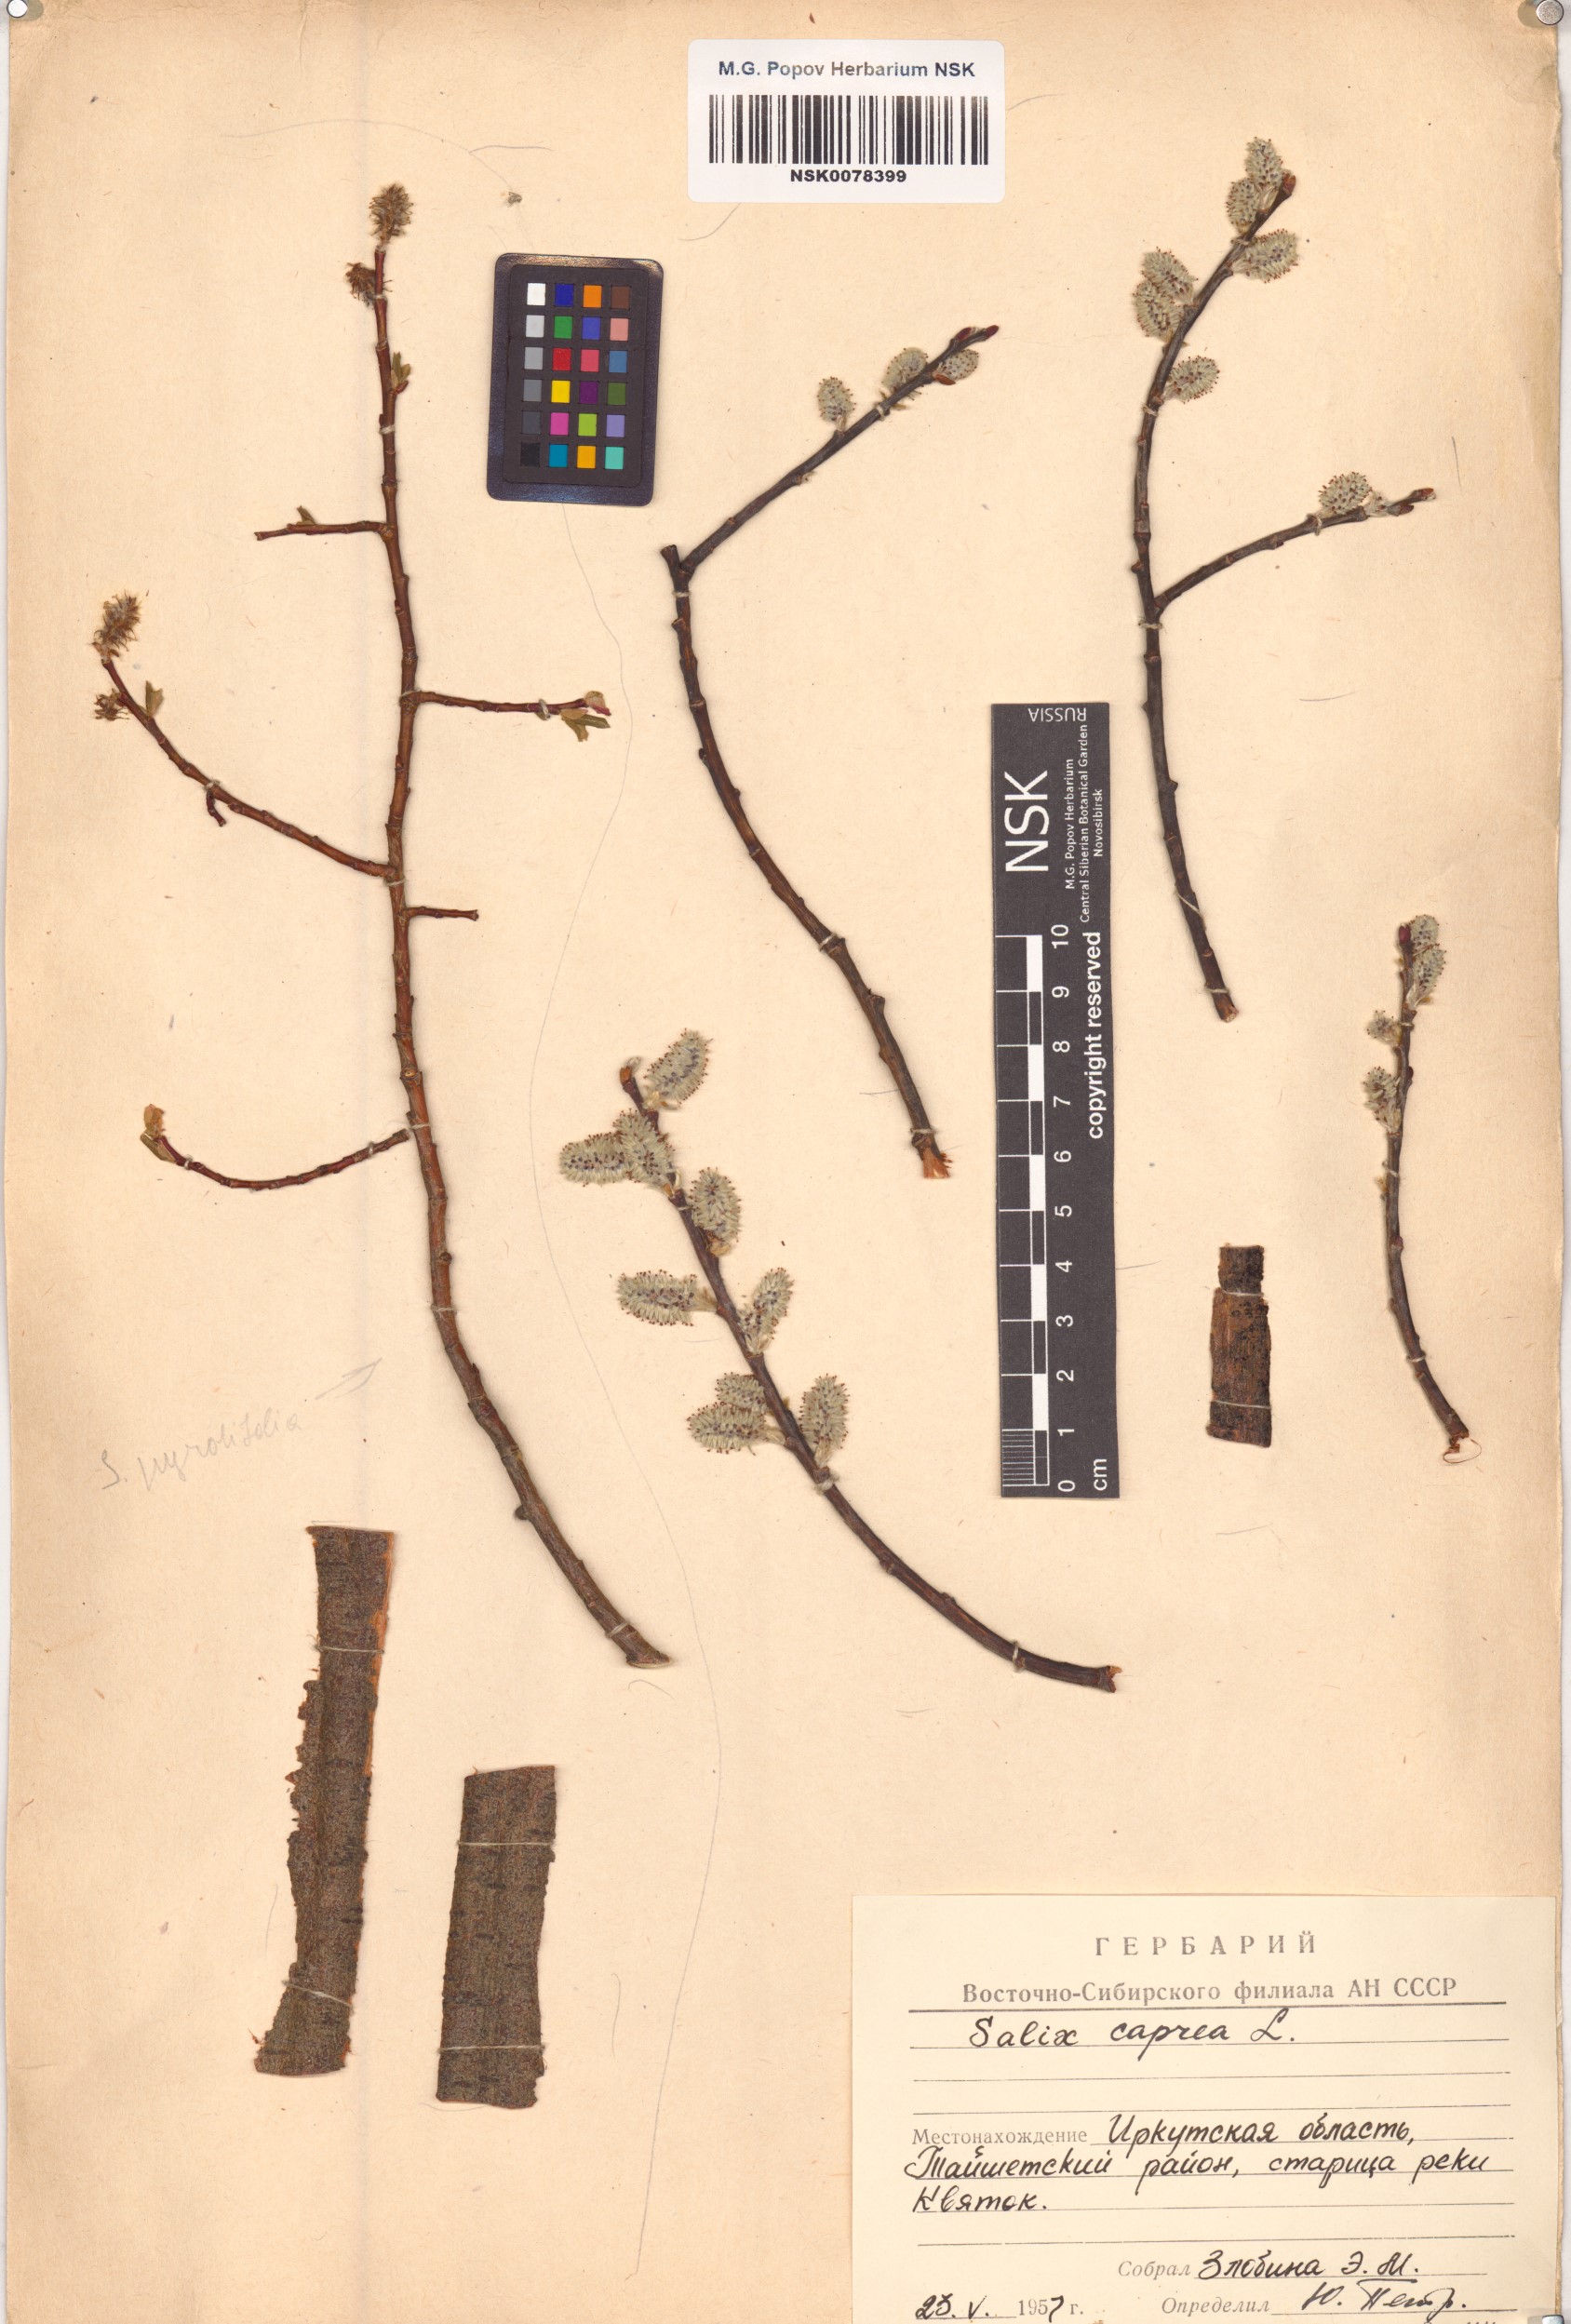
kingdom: Plantae
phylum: Tracheophyta
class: Magnoliopsida
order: Malpighiales
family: Salicaceae
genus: Salix
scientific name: Salix caprea
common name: Goat willow
